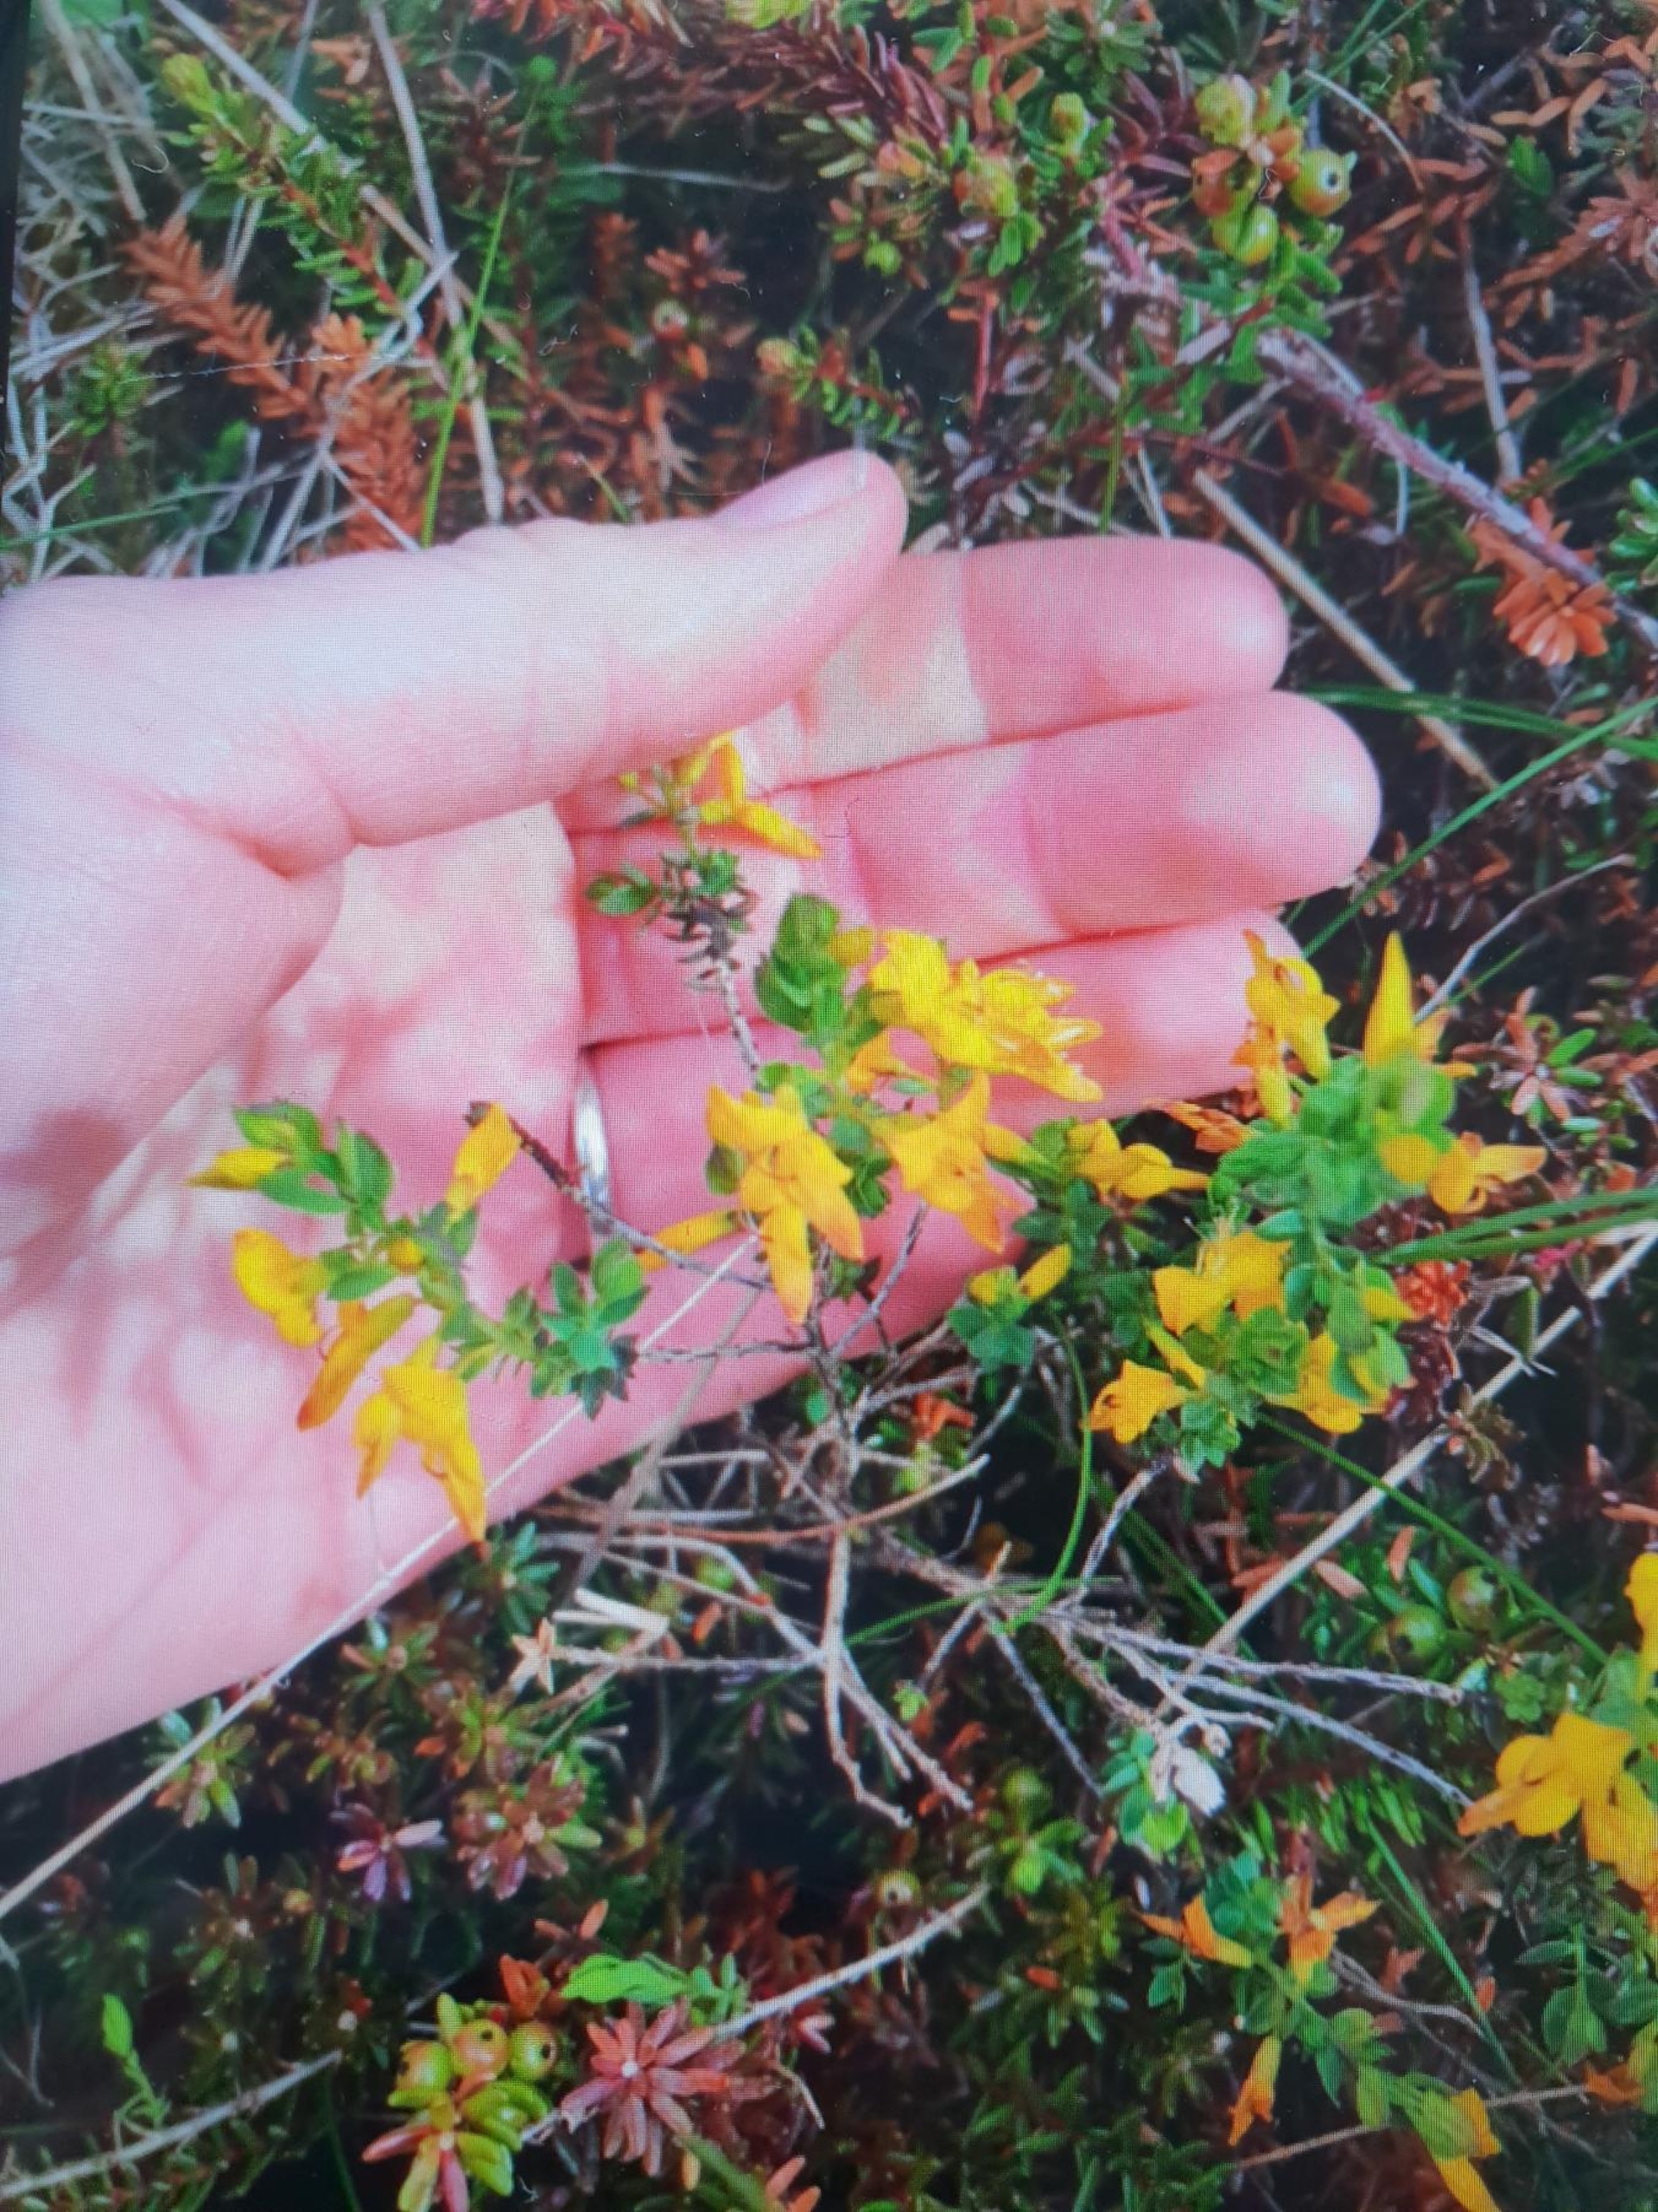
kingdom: Plantae
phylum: Tracheophyta
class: Magnoliopsida
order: Fabales
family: Fabaceae
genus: Genista
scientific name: Genista anglica
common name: Engelsk visse
